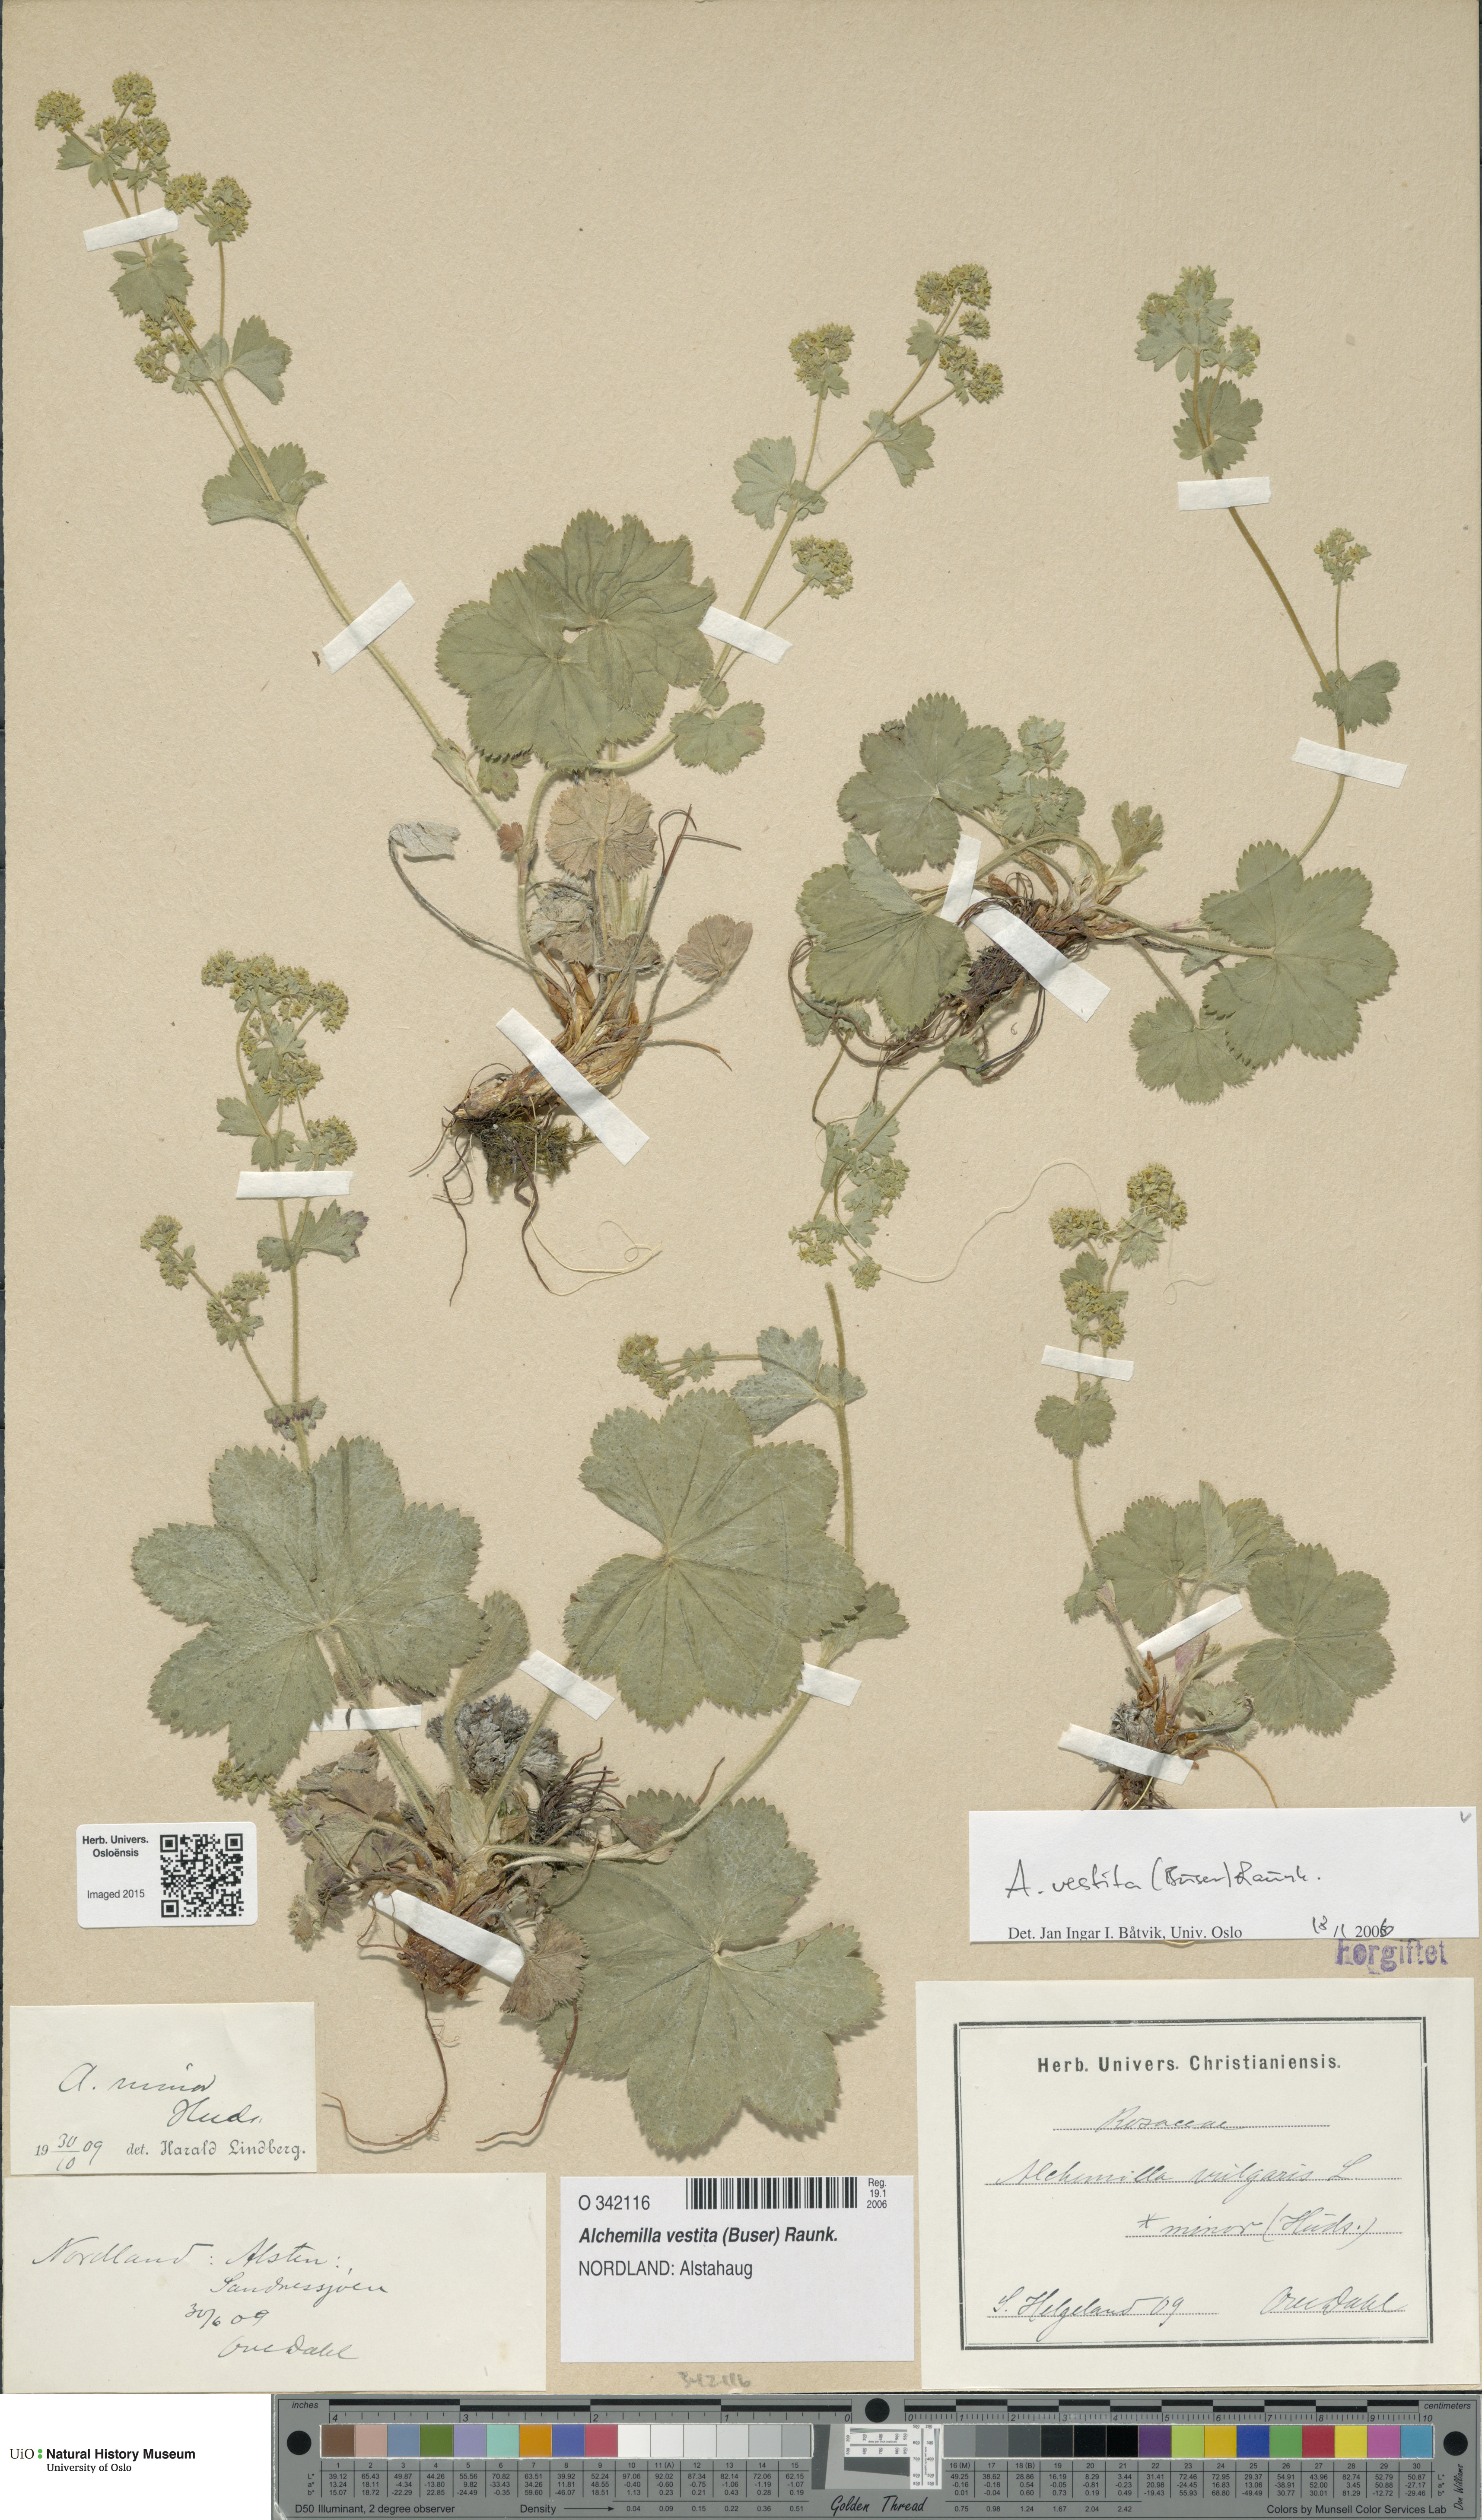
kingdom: Plantae
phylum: Tracheophyta
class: Magnoliopsida
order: Rosales
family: Rosaceae
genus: Alchemilla
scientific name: Alchemilla filicaulis
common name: Hairy lady's-mantle
